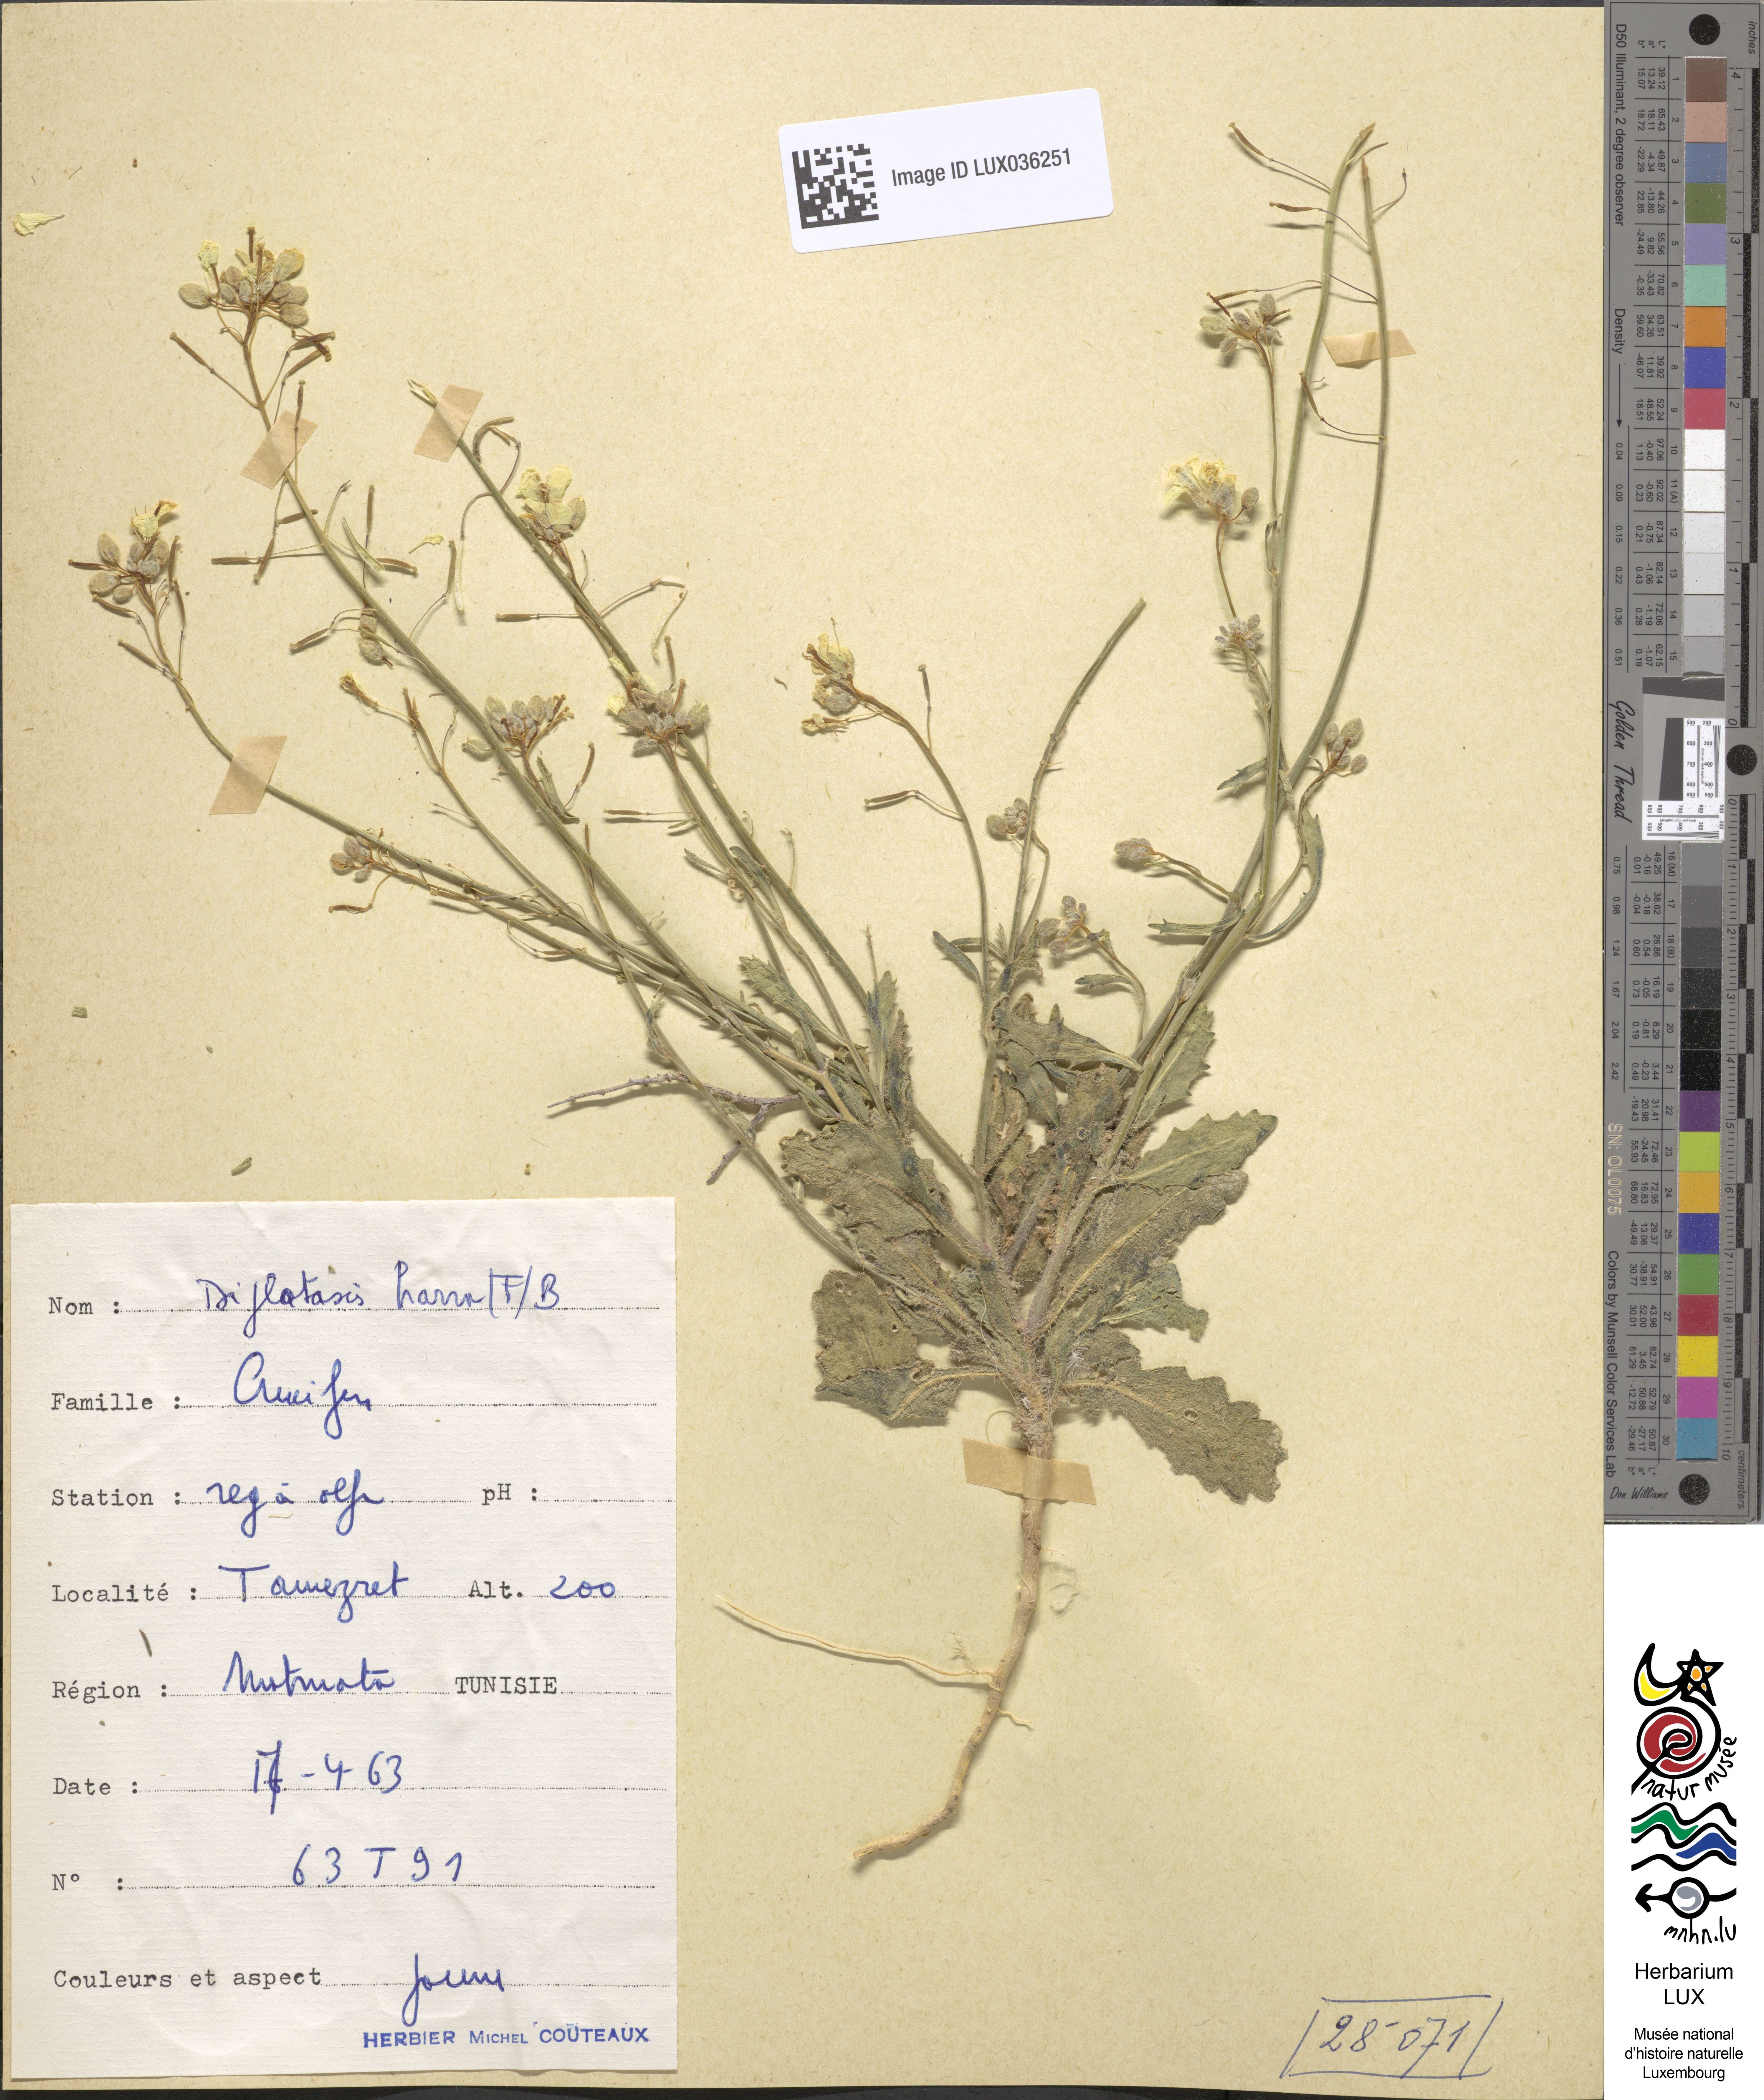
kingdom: Plantae
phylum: Tracheophyta
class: Magnoliopsida
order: Brassicales
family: Brassicaceae
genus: Diplotaxis
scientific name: Diplotaxis harra
